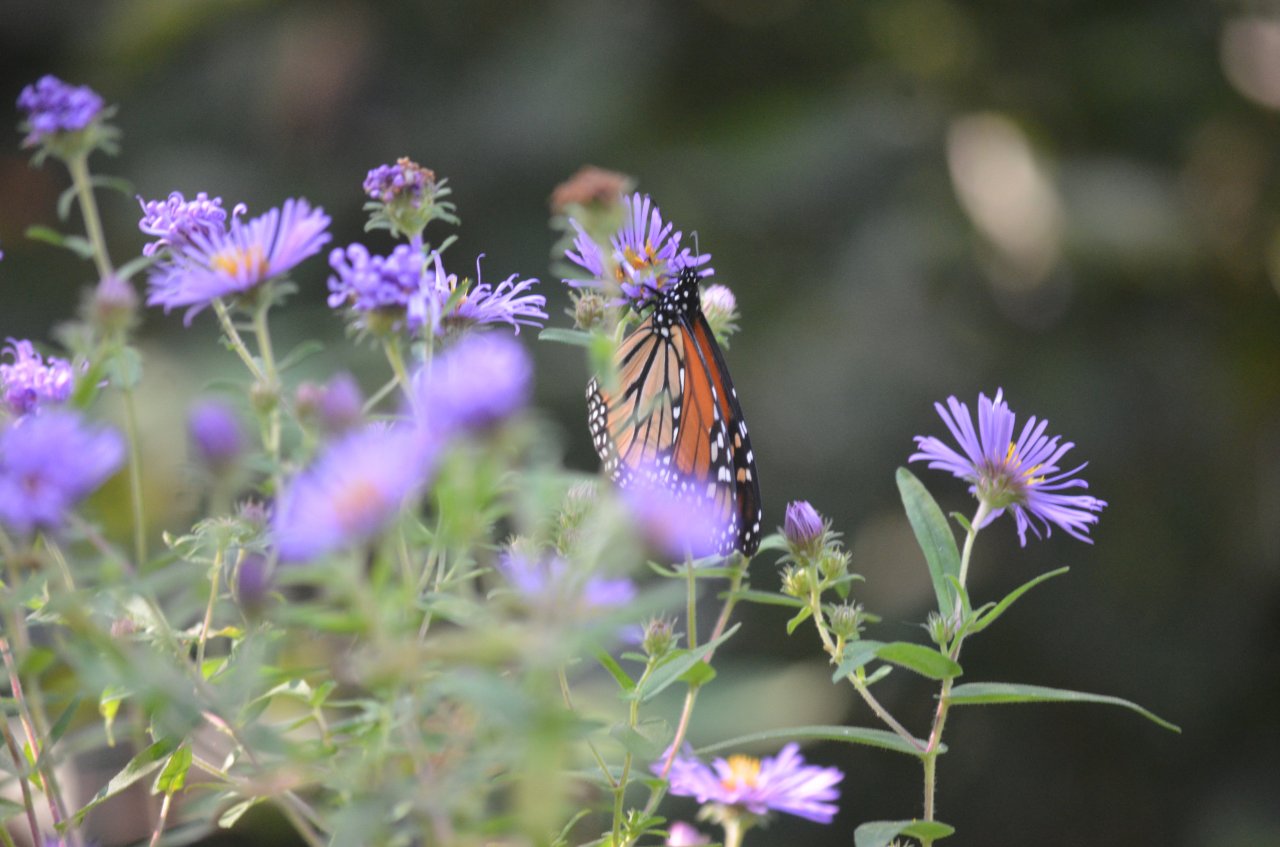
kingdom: Animalia
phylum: Arthropoda
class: Insecta
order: Lepidoptera
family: Nymphalidae
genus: Danaus
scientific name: Danaus plexippus
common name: Monarch
